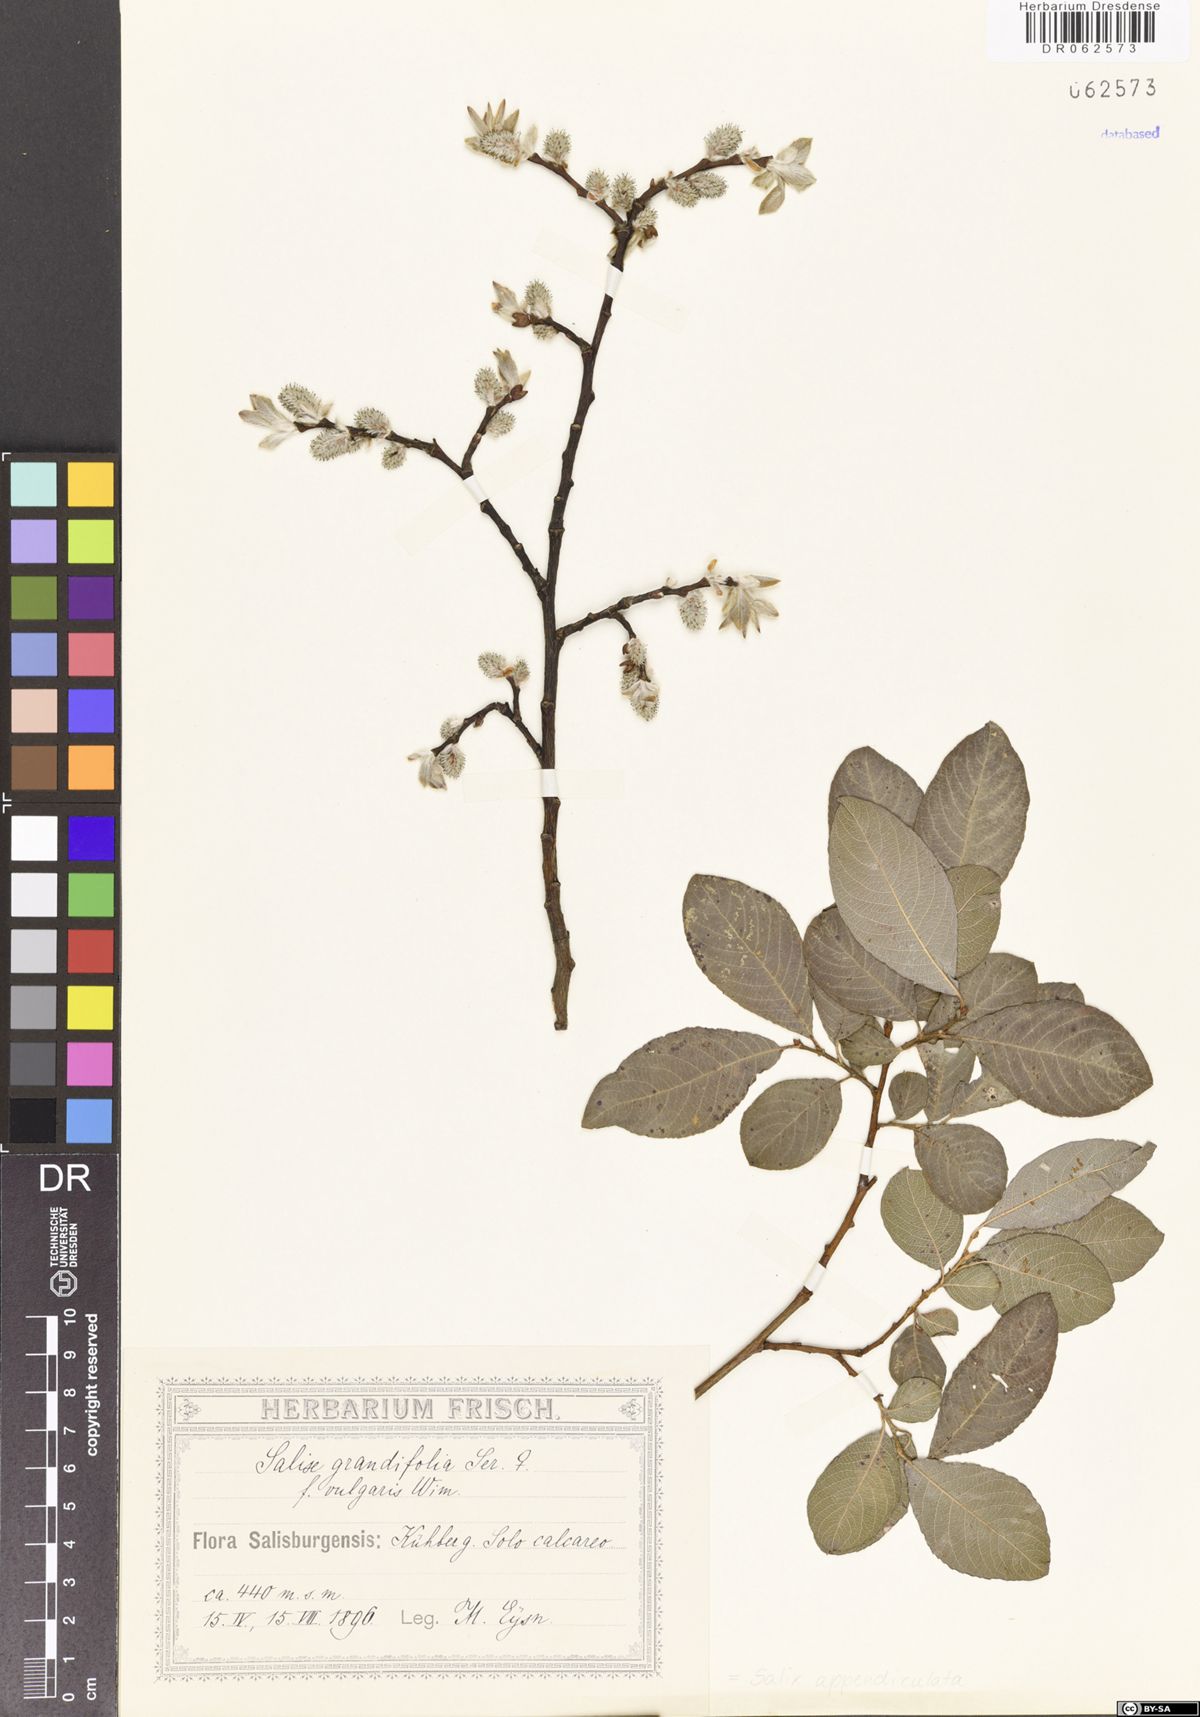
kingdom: Plantae
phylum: Tracheophyta
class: Magnoliopsida
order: Malpighiales
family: Salicaceae
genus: Salix
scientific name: Salix appendiculata
